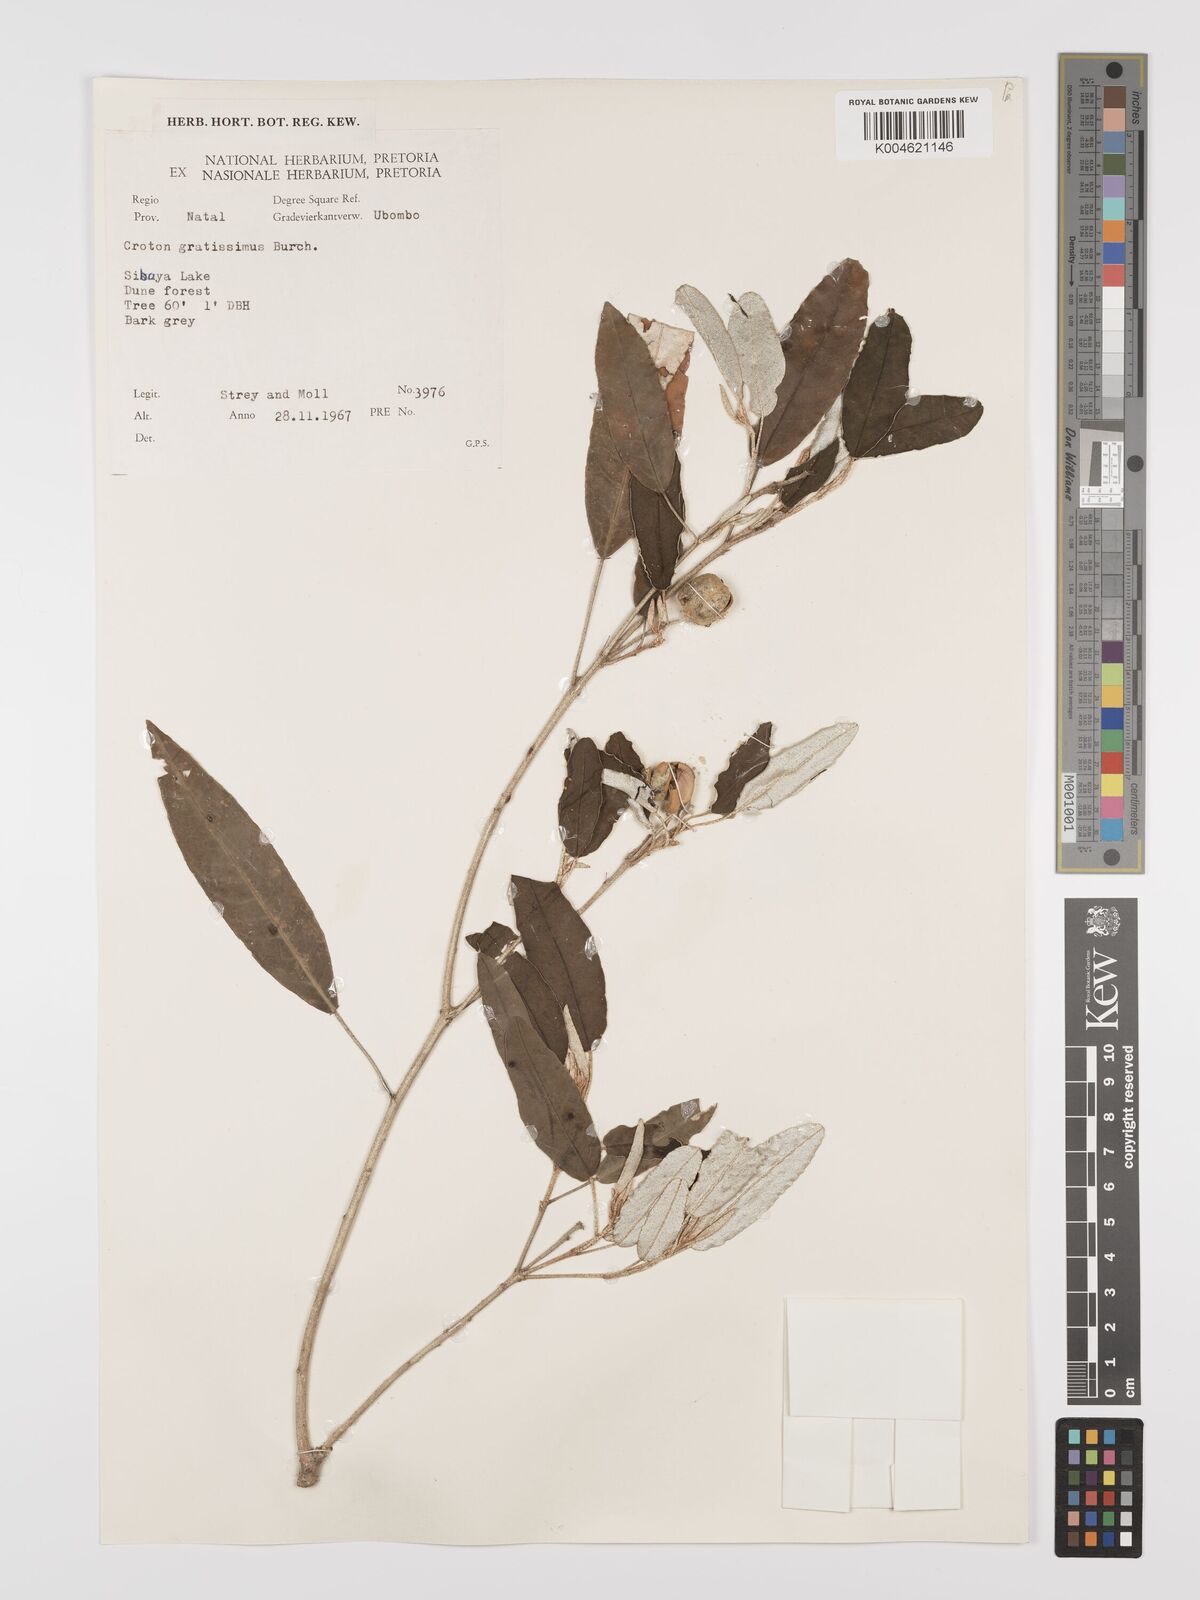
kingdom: Plantae
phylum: Tracheophyta
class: Magnoliopsida
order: Malpighiales
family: Euphorbiaceae
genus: Croton
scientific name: Croton gratissimus
